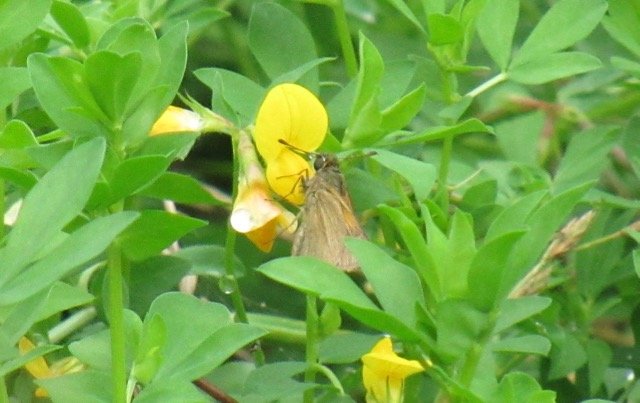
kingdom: Animalia
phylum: Arthropoda
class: Insecta
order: Lepidoptera
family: Hesperiidae
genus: Polites
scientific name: Polites themistocles
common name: Tawny-edged Skipper
